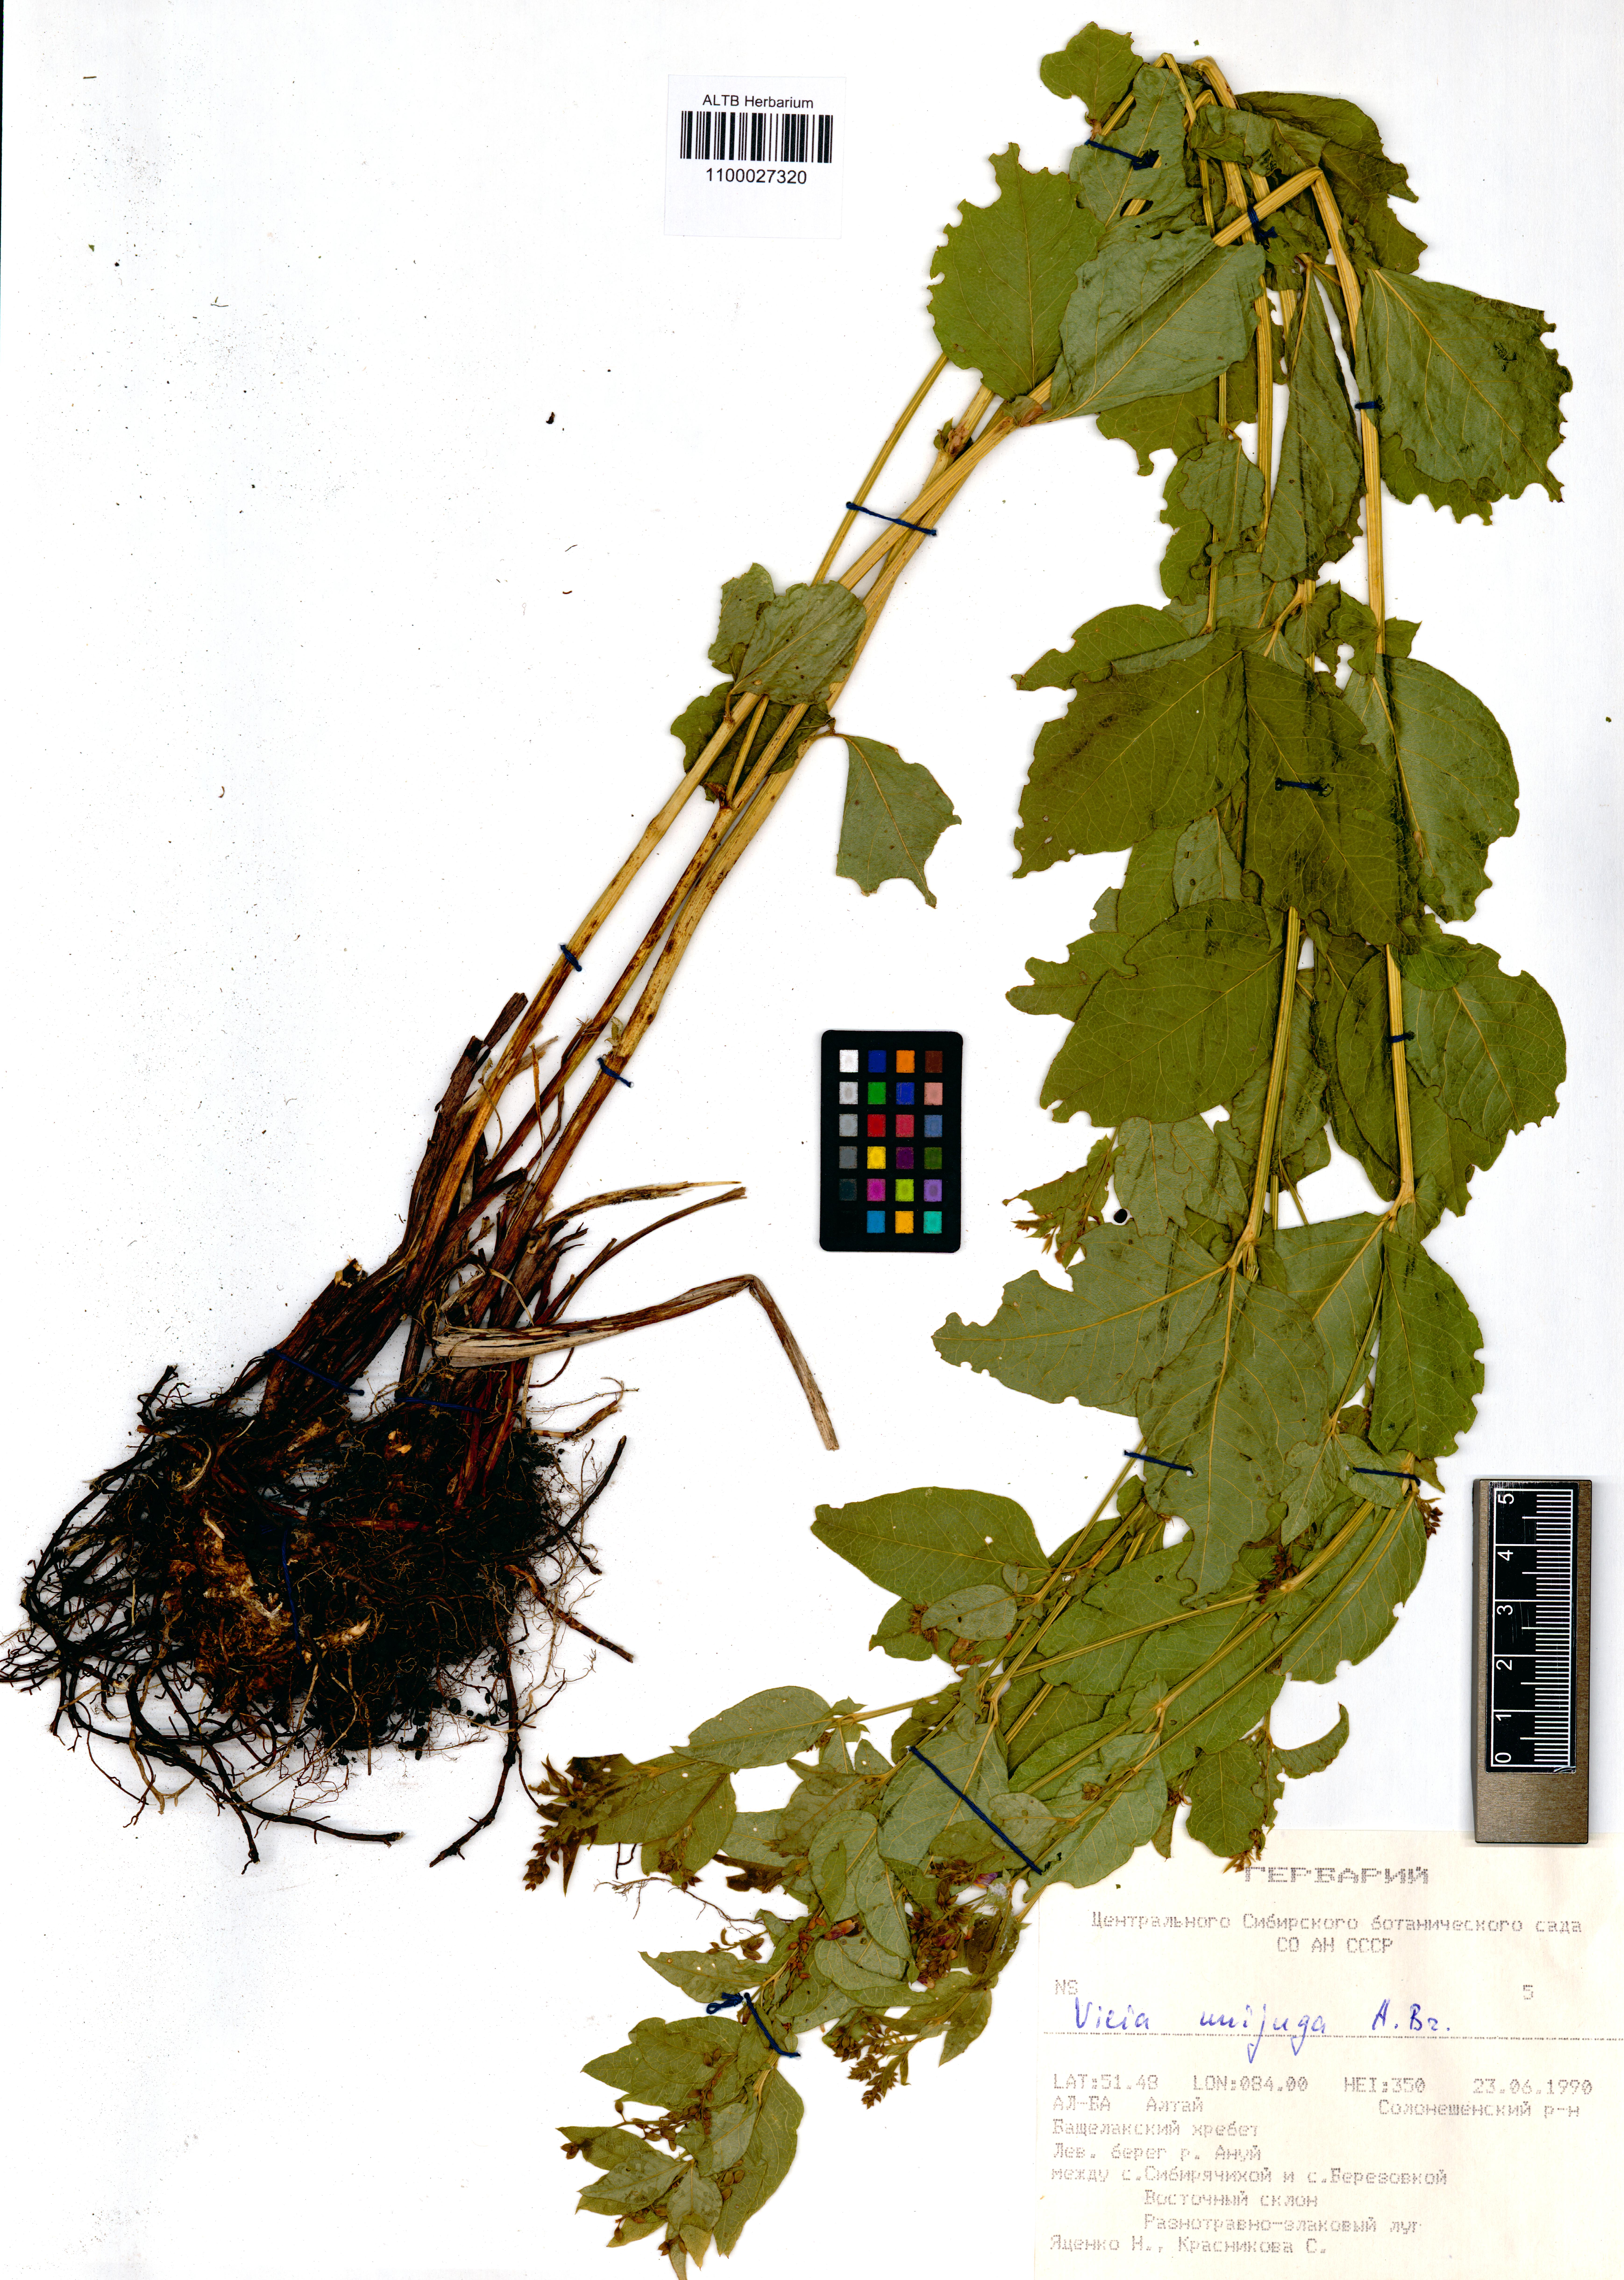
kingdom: Plantae
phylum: Tracheophyta
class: Magnoliopsida
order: Fabales
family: Fabaceae
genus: Vicia
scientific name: Vicia unijuga
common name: Two-leaf vetch
